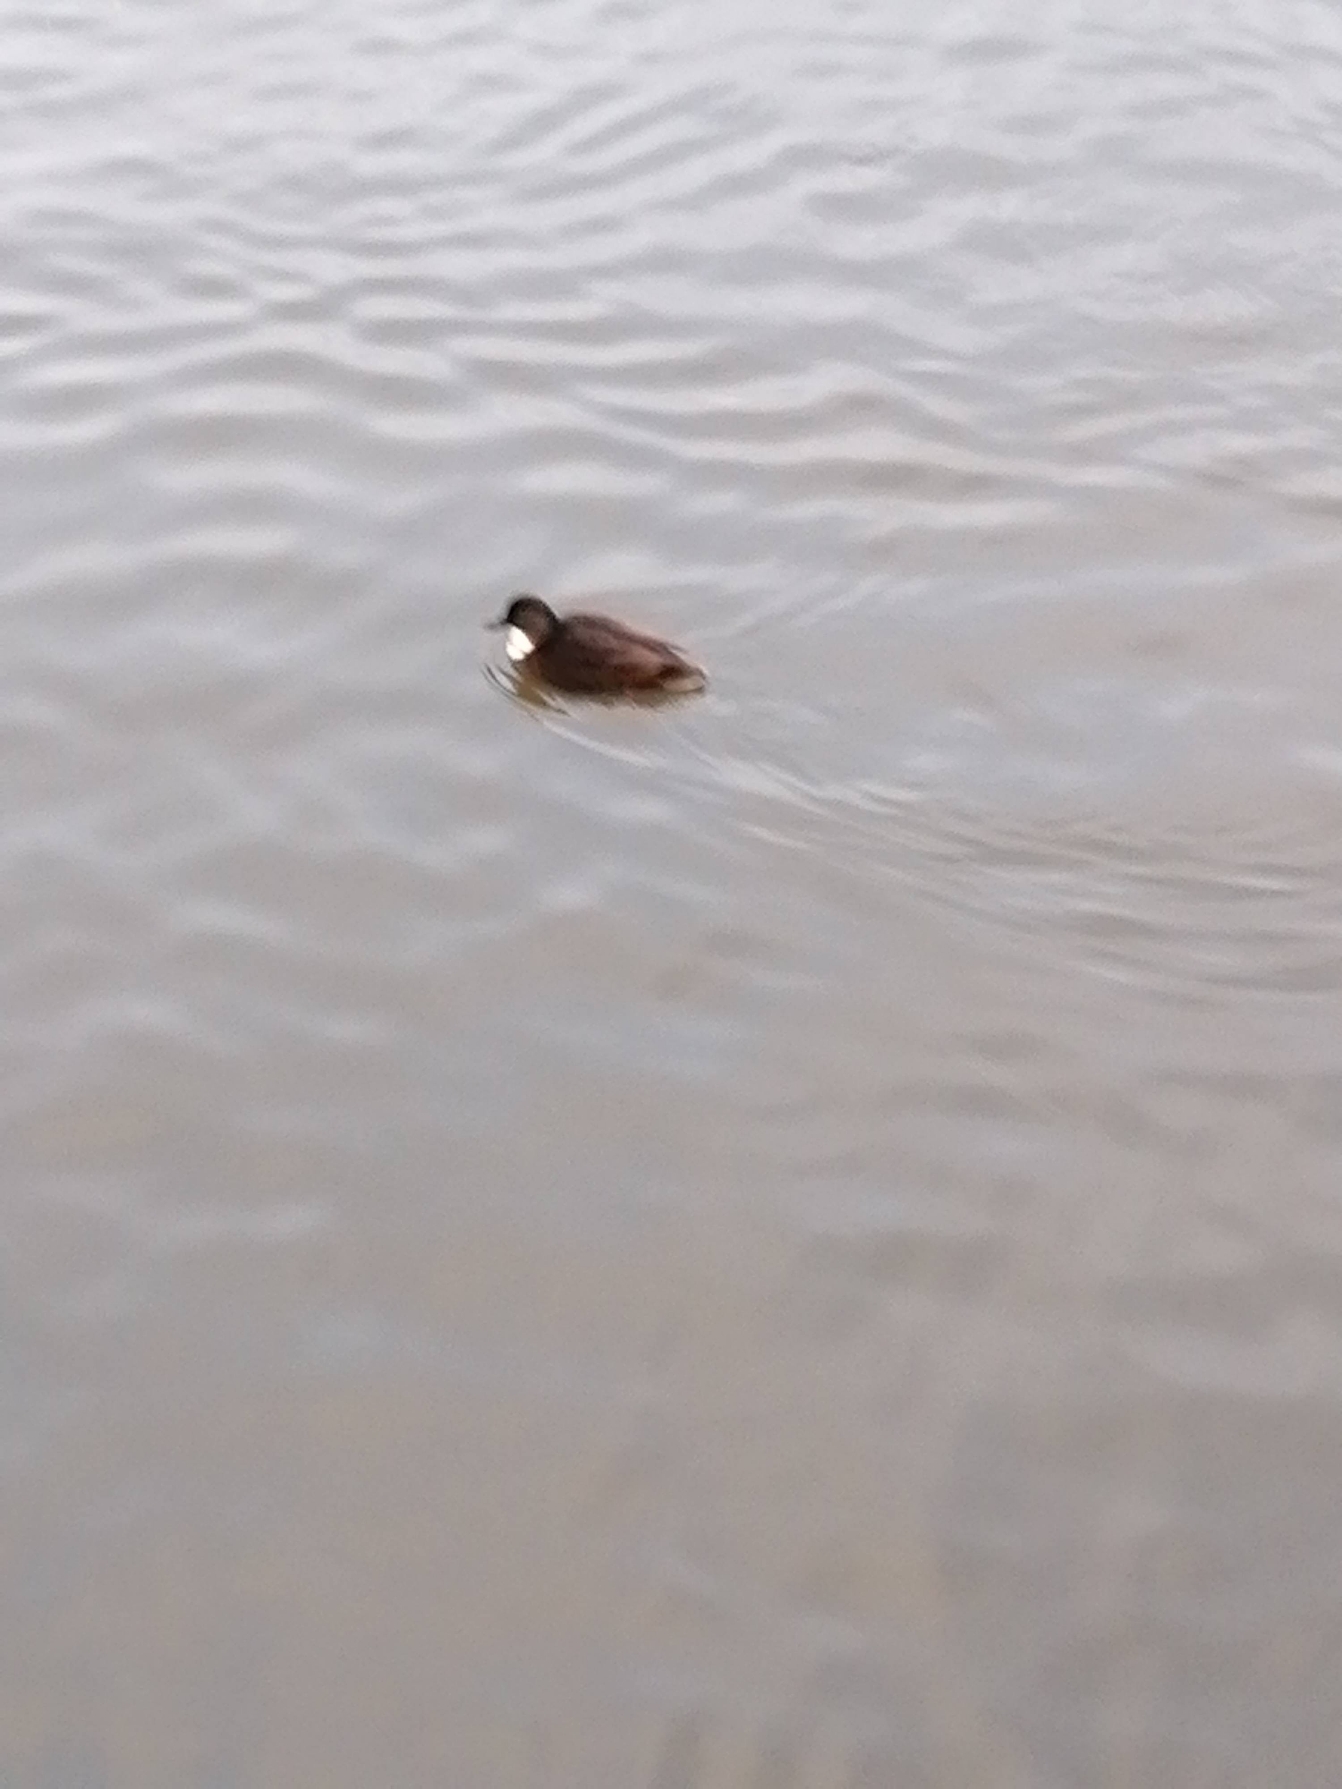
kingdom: Animalia
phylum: Chordata
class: Aves
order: Anseriformes
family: Anatidae
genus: Anas
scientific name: Anas platyrhynchos
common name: Gråand
